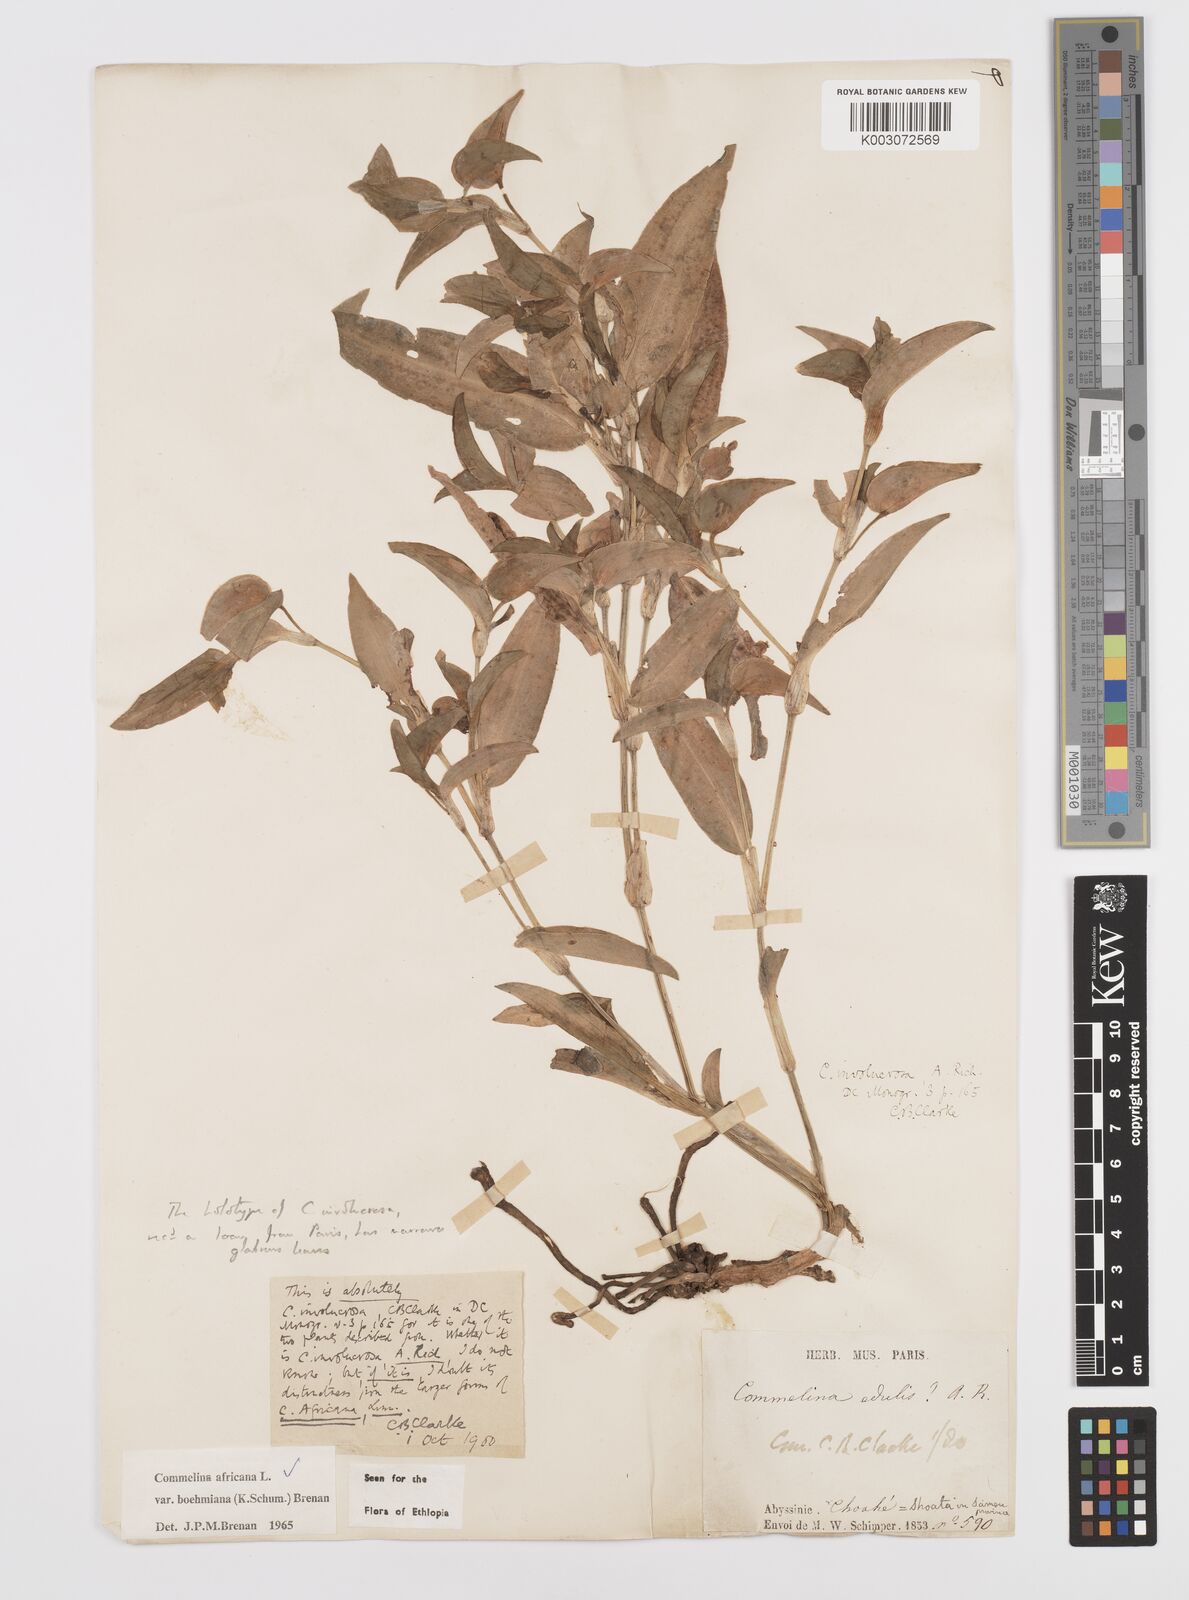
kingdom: Plantae
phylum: Tracheophyta
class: Liliopsida
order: Commelinales
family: Commelinaceae
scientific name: Commelinaceae
